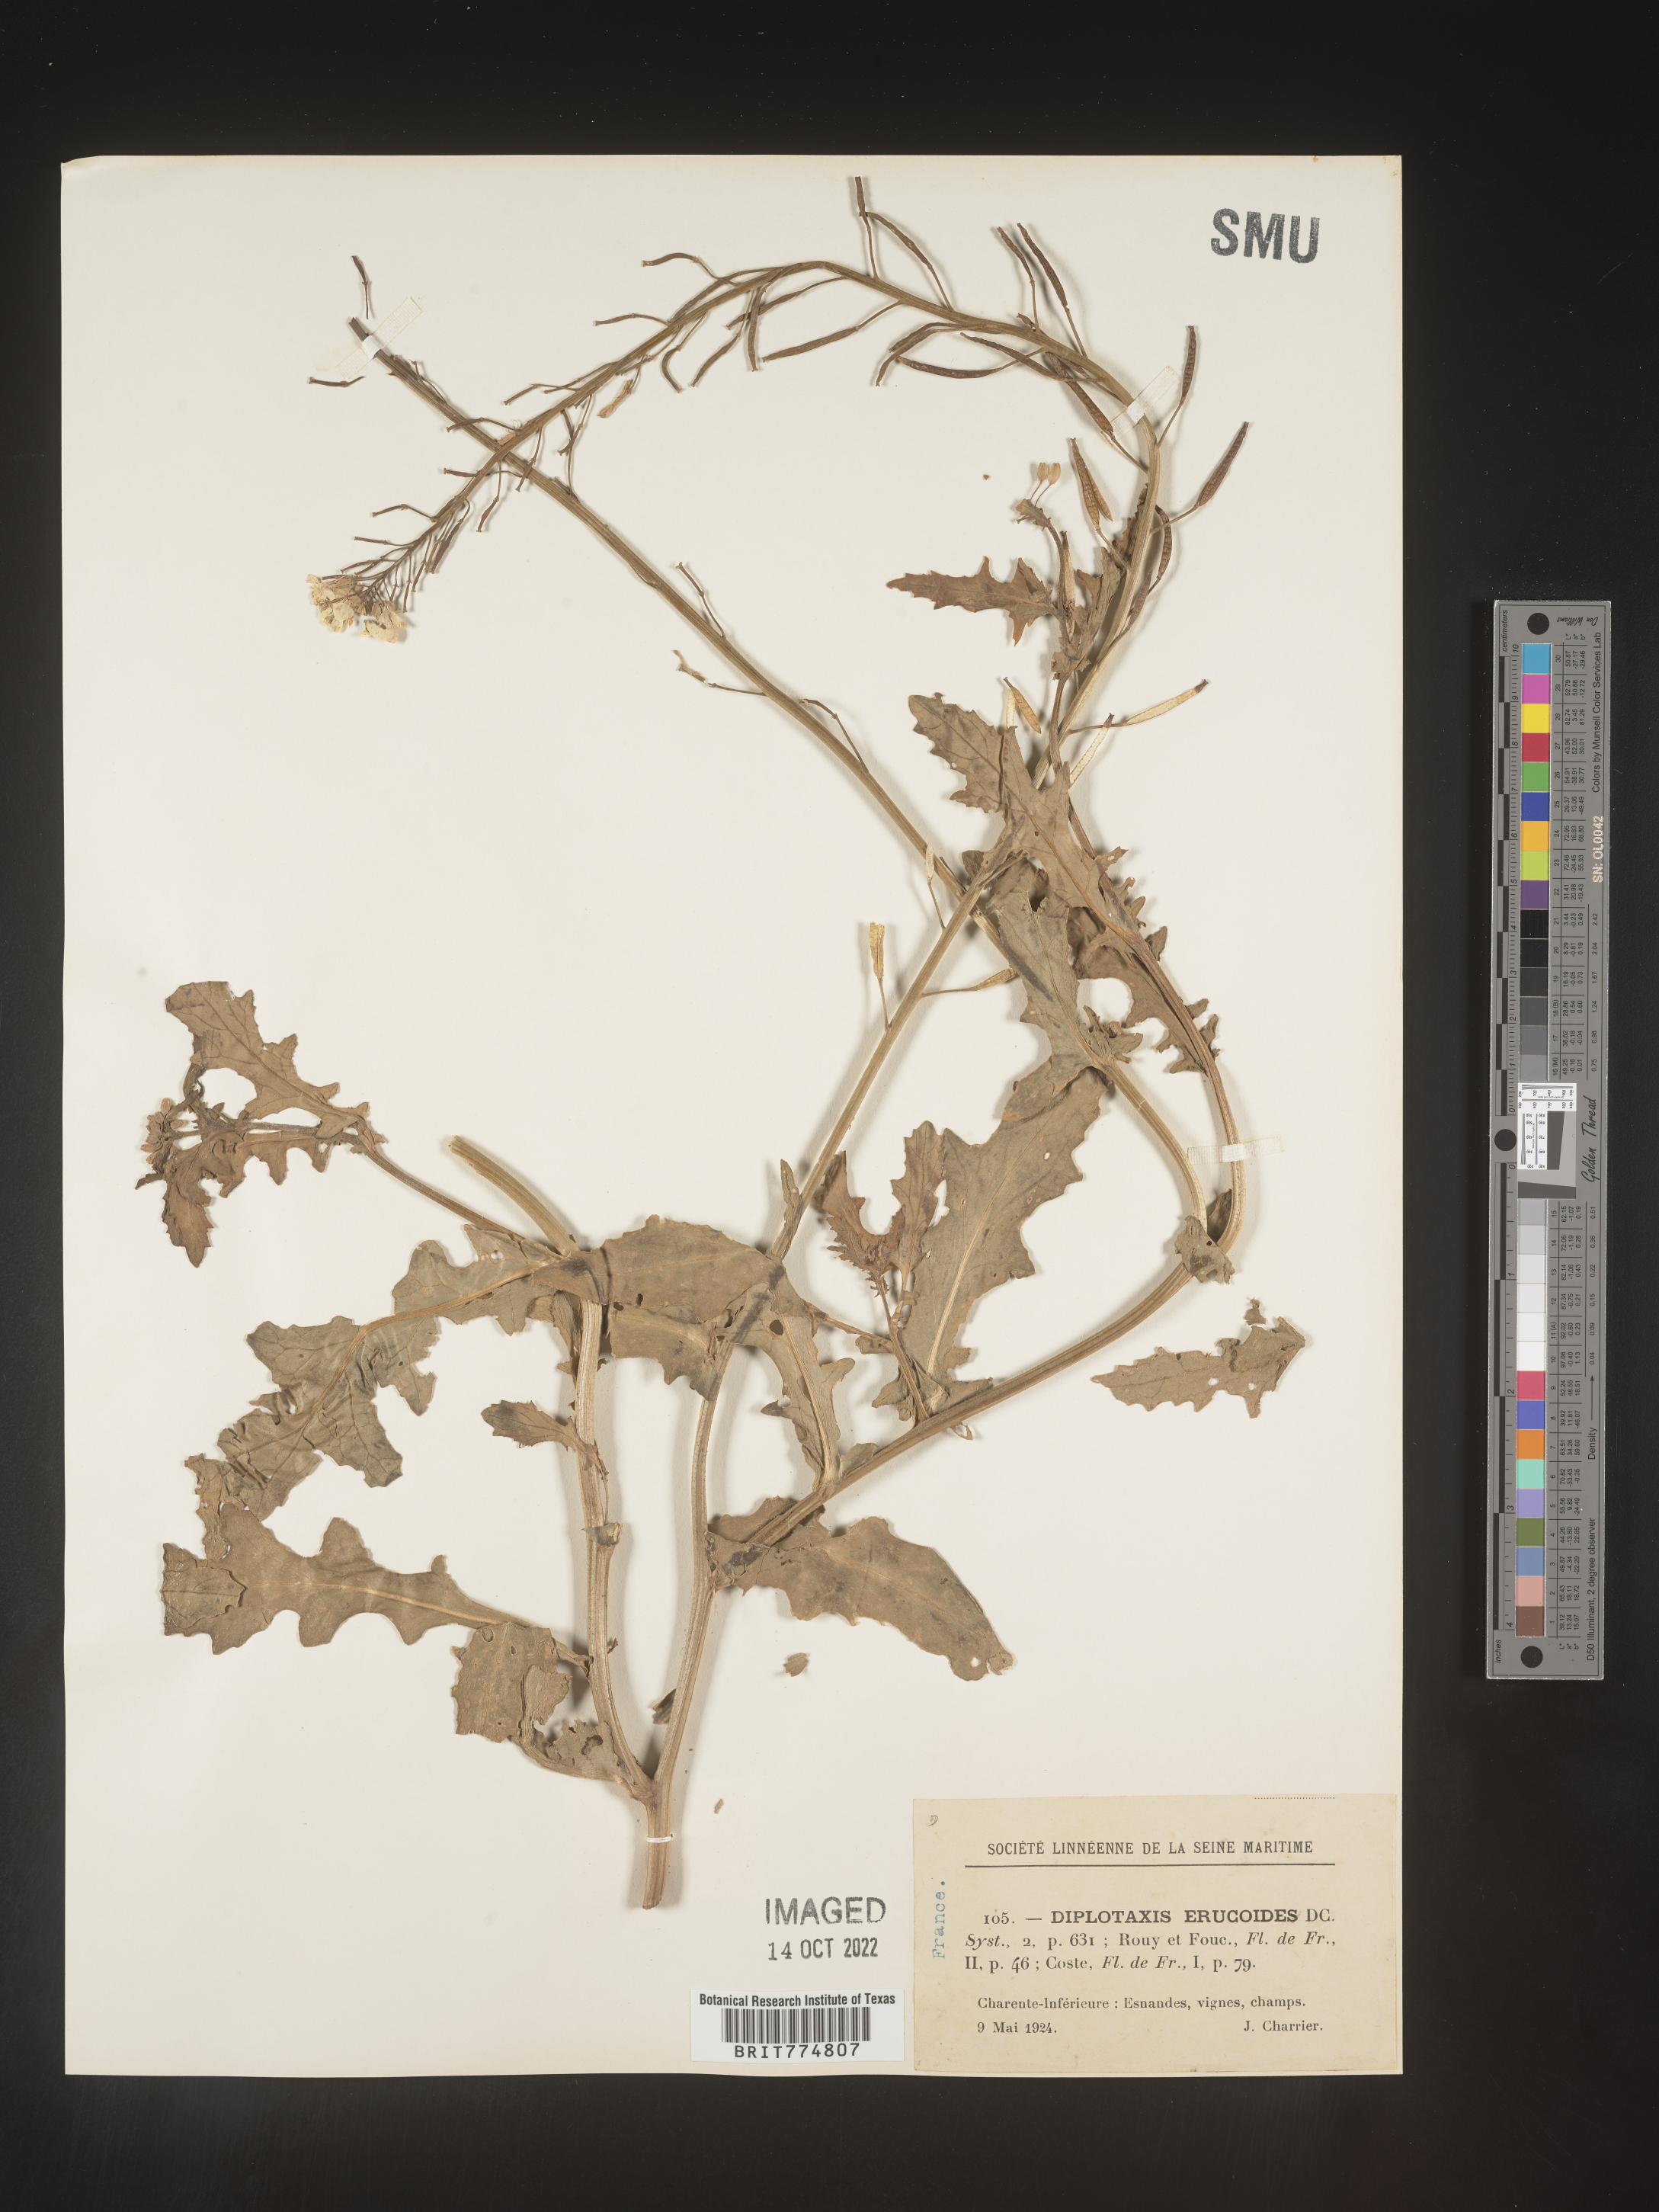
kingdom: Plantae
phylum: Tracheophyta
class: Magnoliopsida
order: Brassicales
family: Brassicaceae
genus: Diplotaxis
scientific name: Diplotaxis
